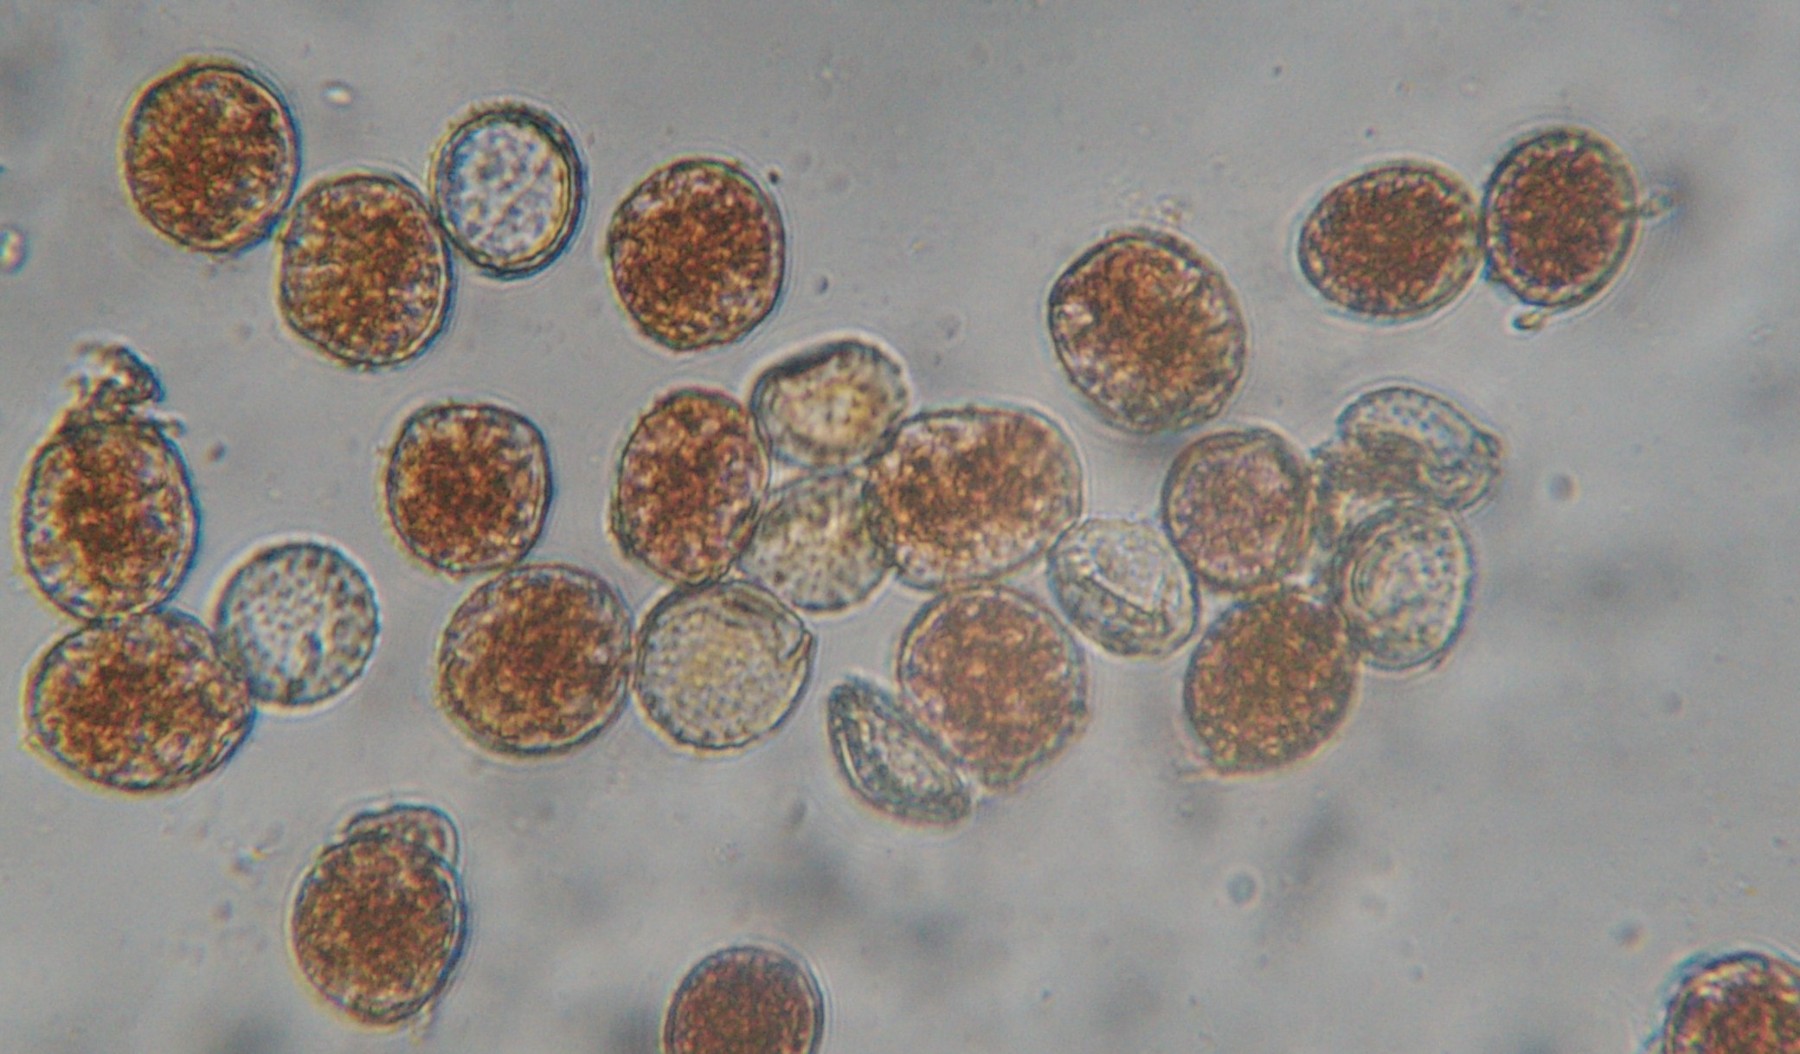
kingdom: Fungi
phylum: Basidiomycota
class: Pucciniomycetes
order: Pucciniales
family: Raveneliaceae
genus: Triphragmium
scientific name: Triphragmium ulmariae
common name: almindelig mjødurtrust
